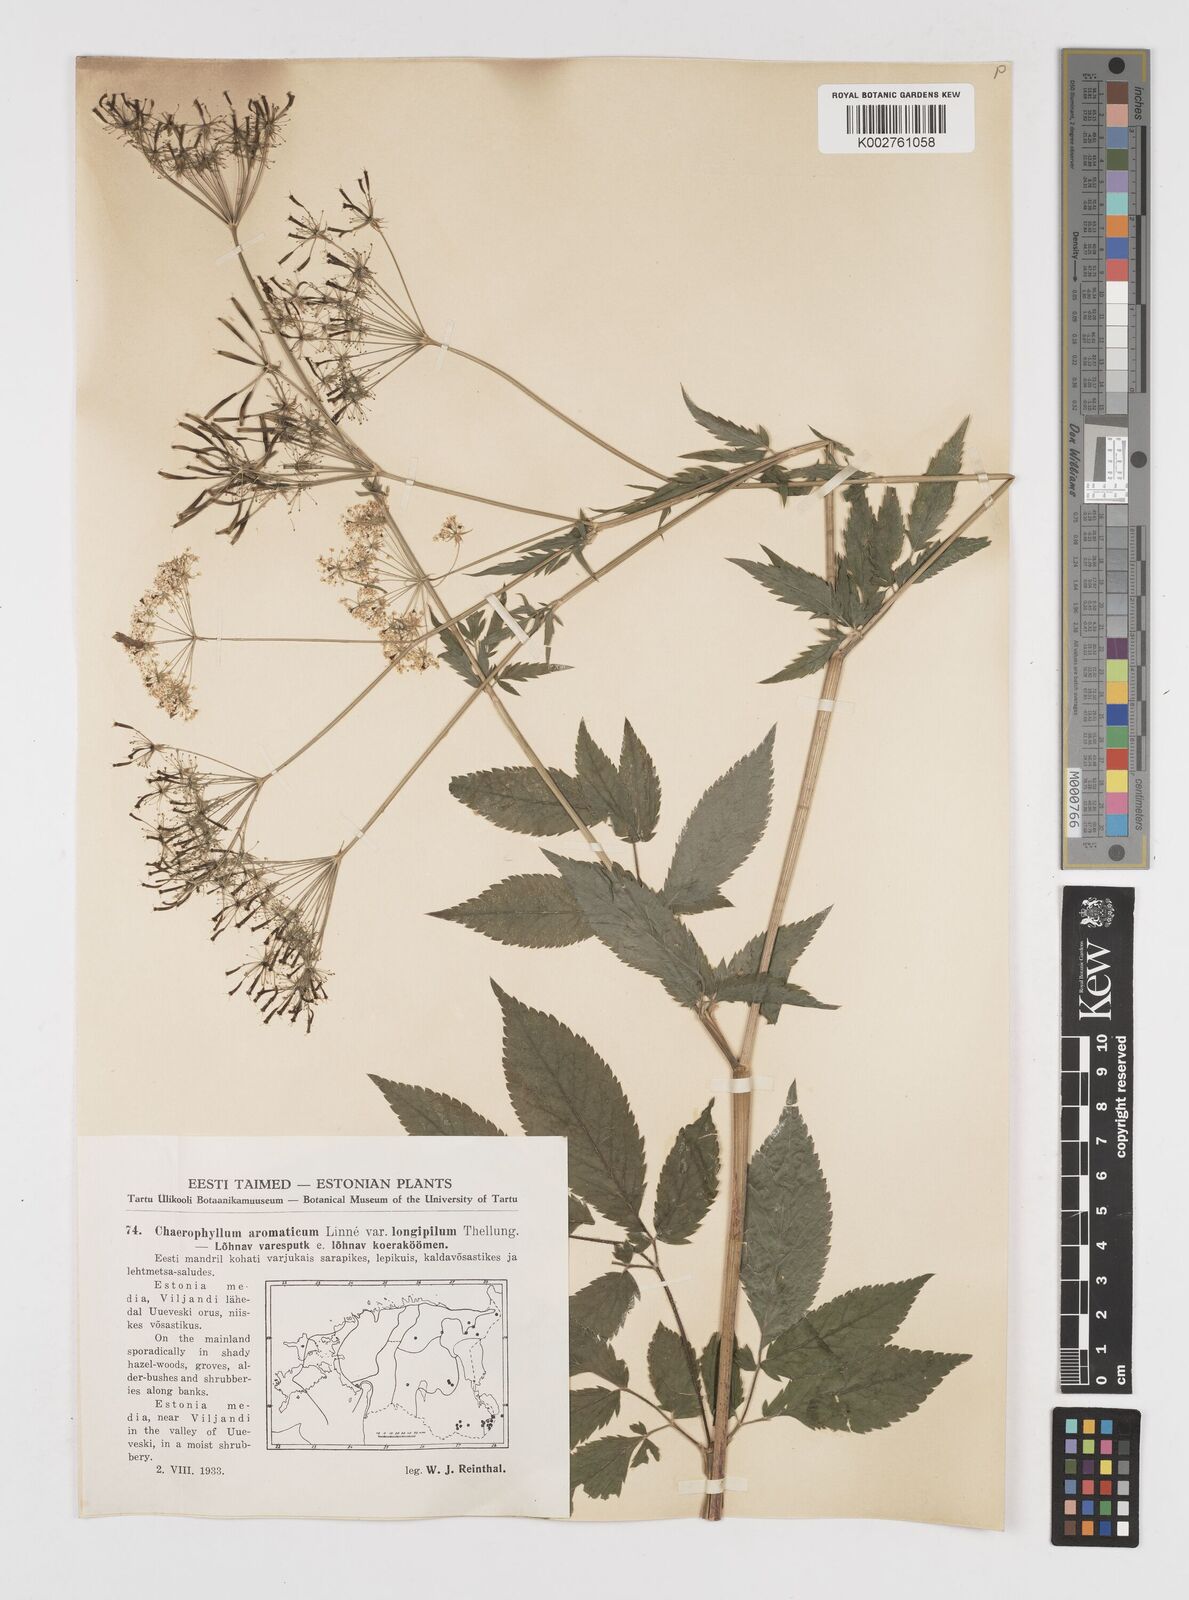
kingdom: Plantae
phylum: Tracheophyta
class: Magnoliopsida
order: Apiales
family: Apiaceae
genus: Chaerophyllum
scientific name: Chaerophyllum aromaticum
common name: Broadleaf chervil
